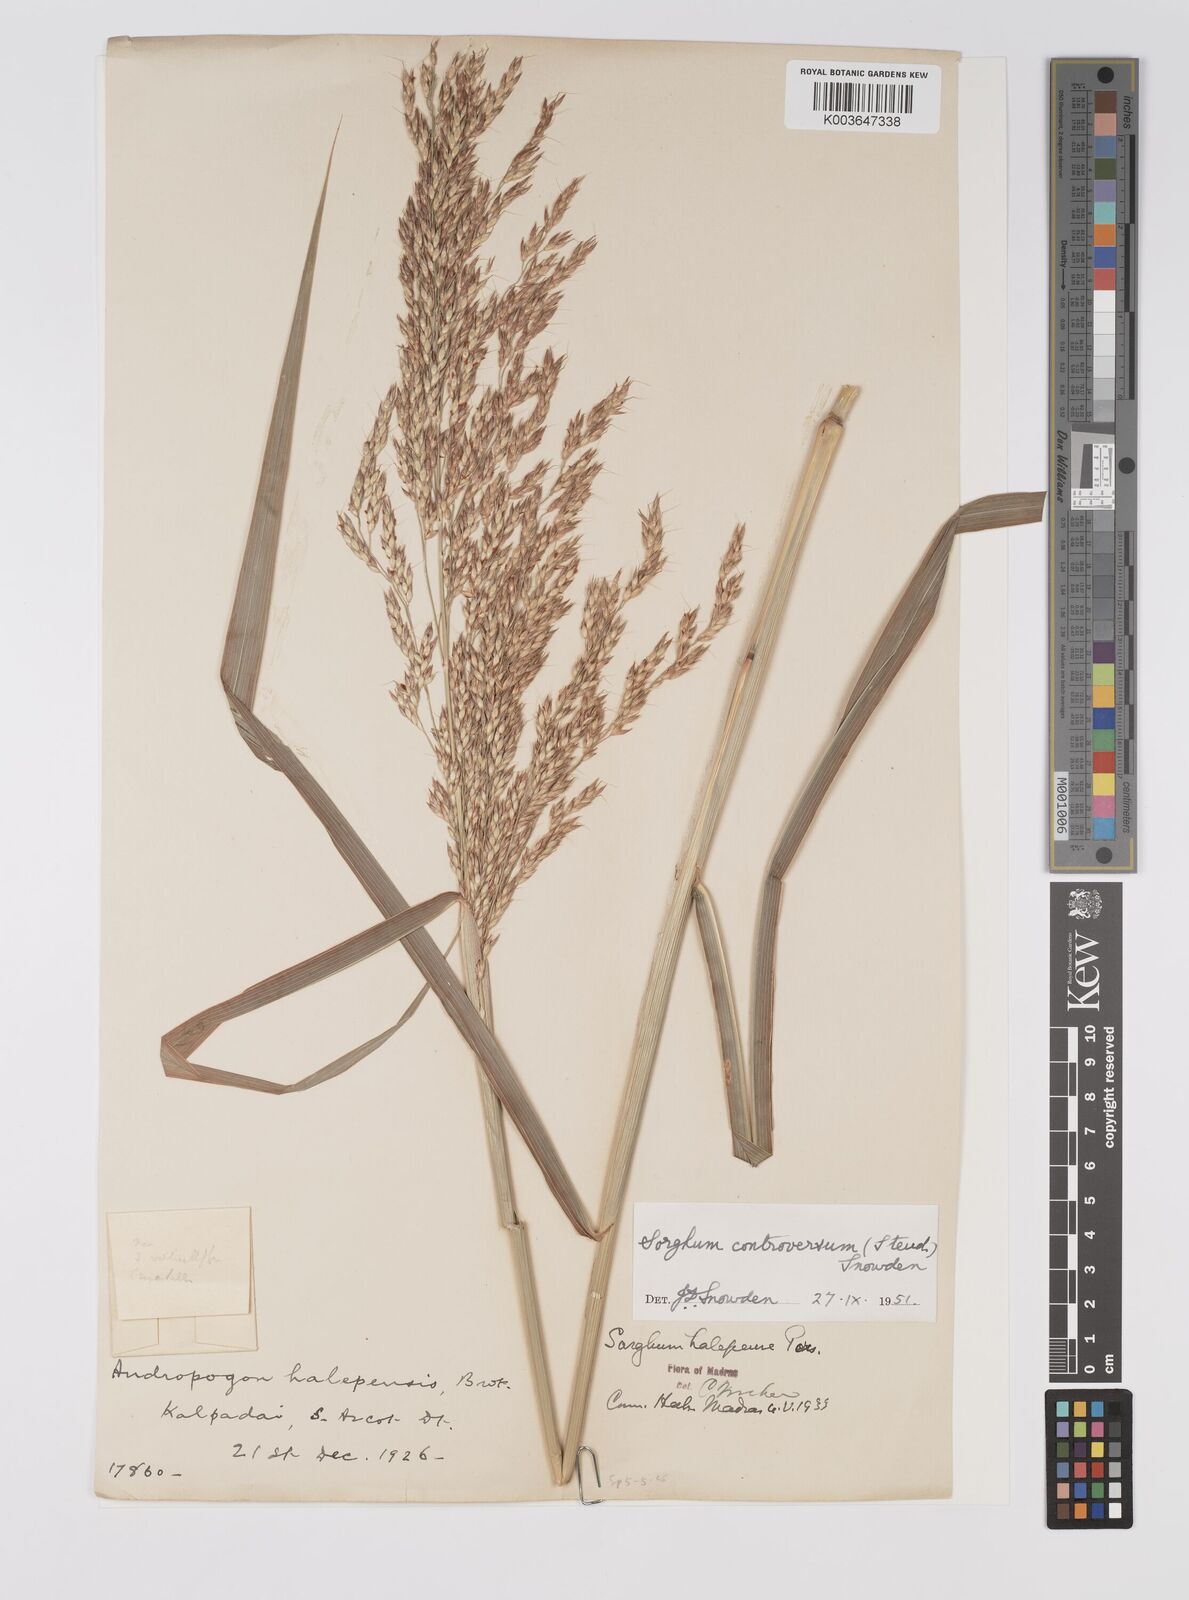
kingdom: Plantae
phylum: Tracheophyta
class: Liliopsida
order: Poales
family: Poaceae
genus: Sorghum
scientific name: Sorghum controversum
